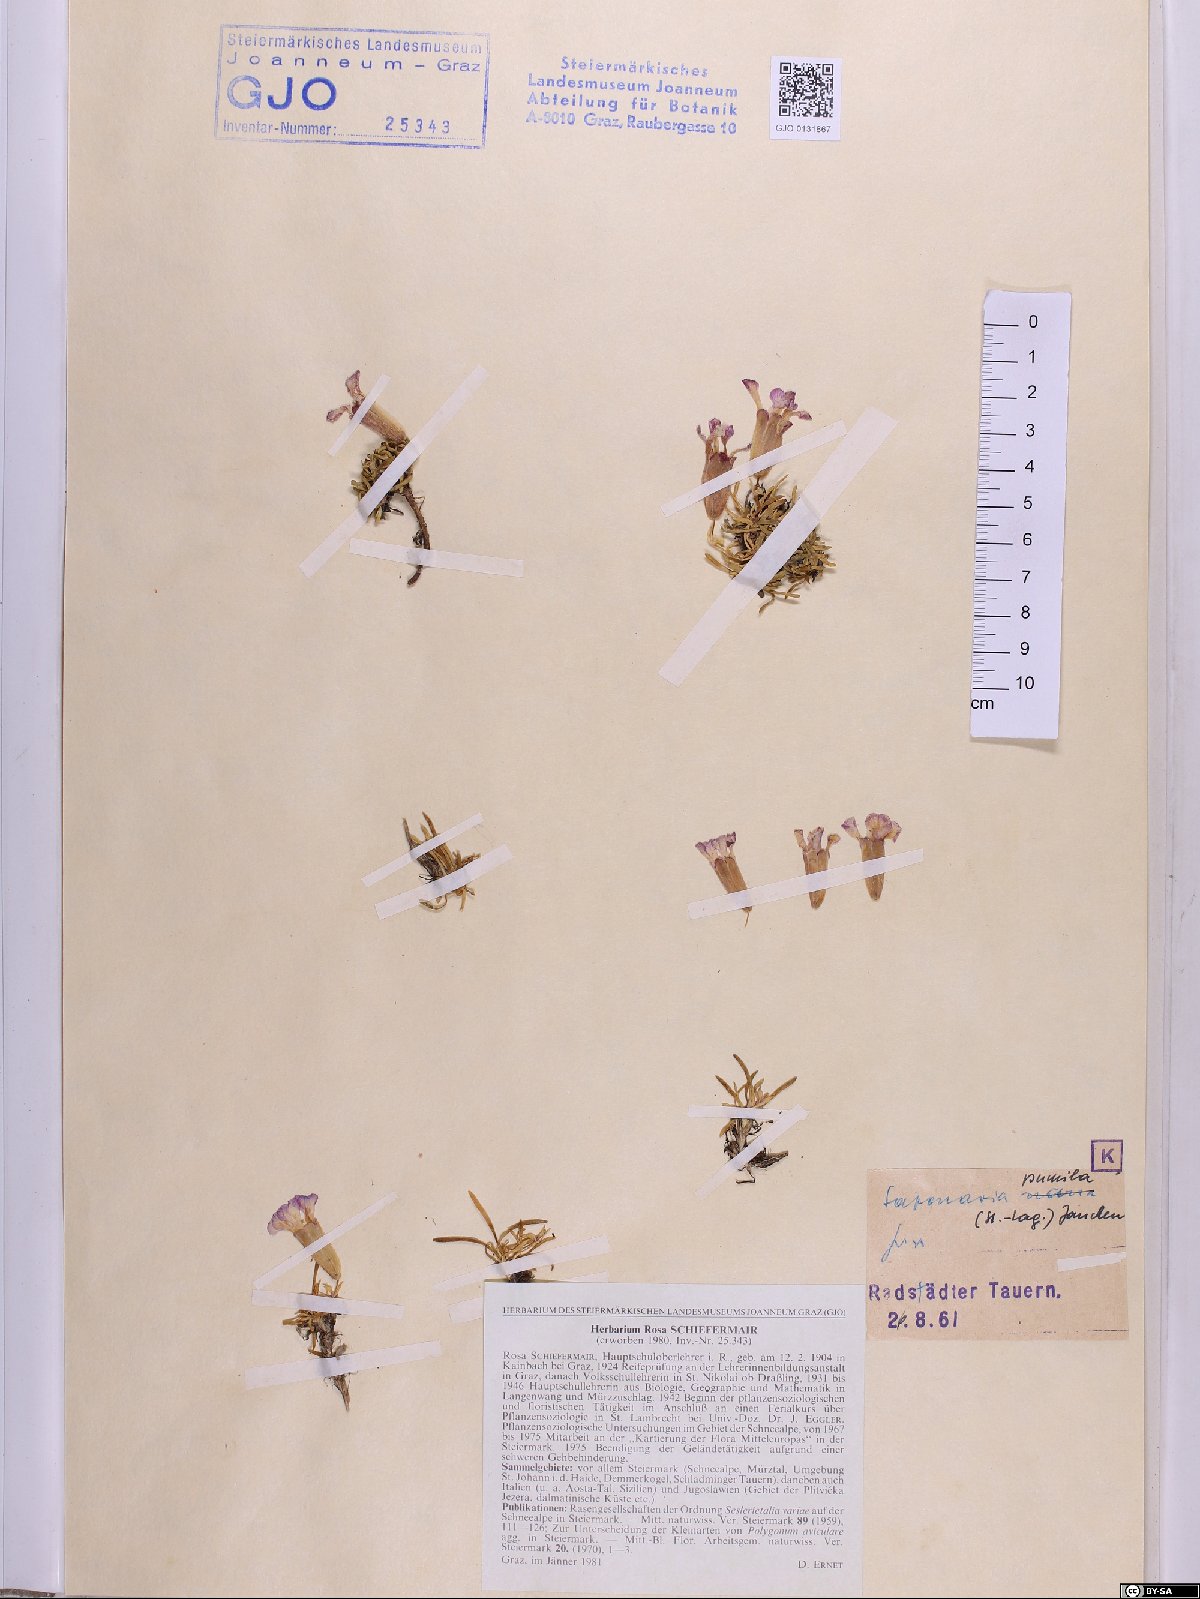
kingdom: Plantae
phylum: Tracheophyta
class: Magnoliopsida
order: Caryophyllales
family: Caryophyllaceae
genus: Saponaria
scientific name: Saponaria pumila
